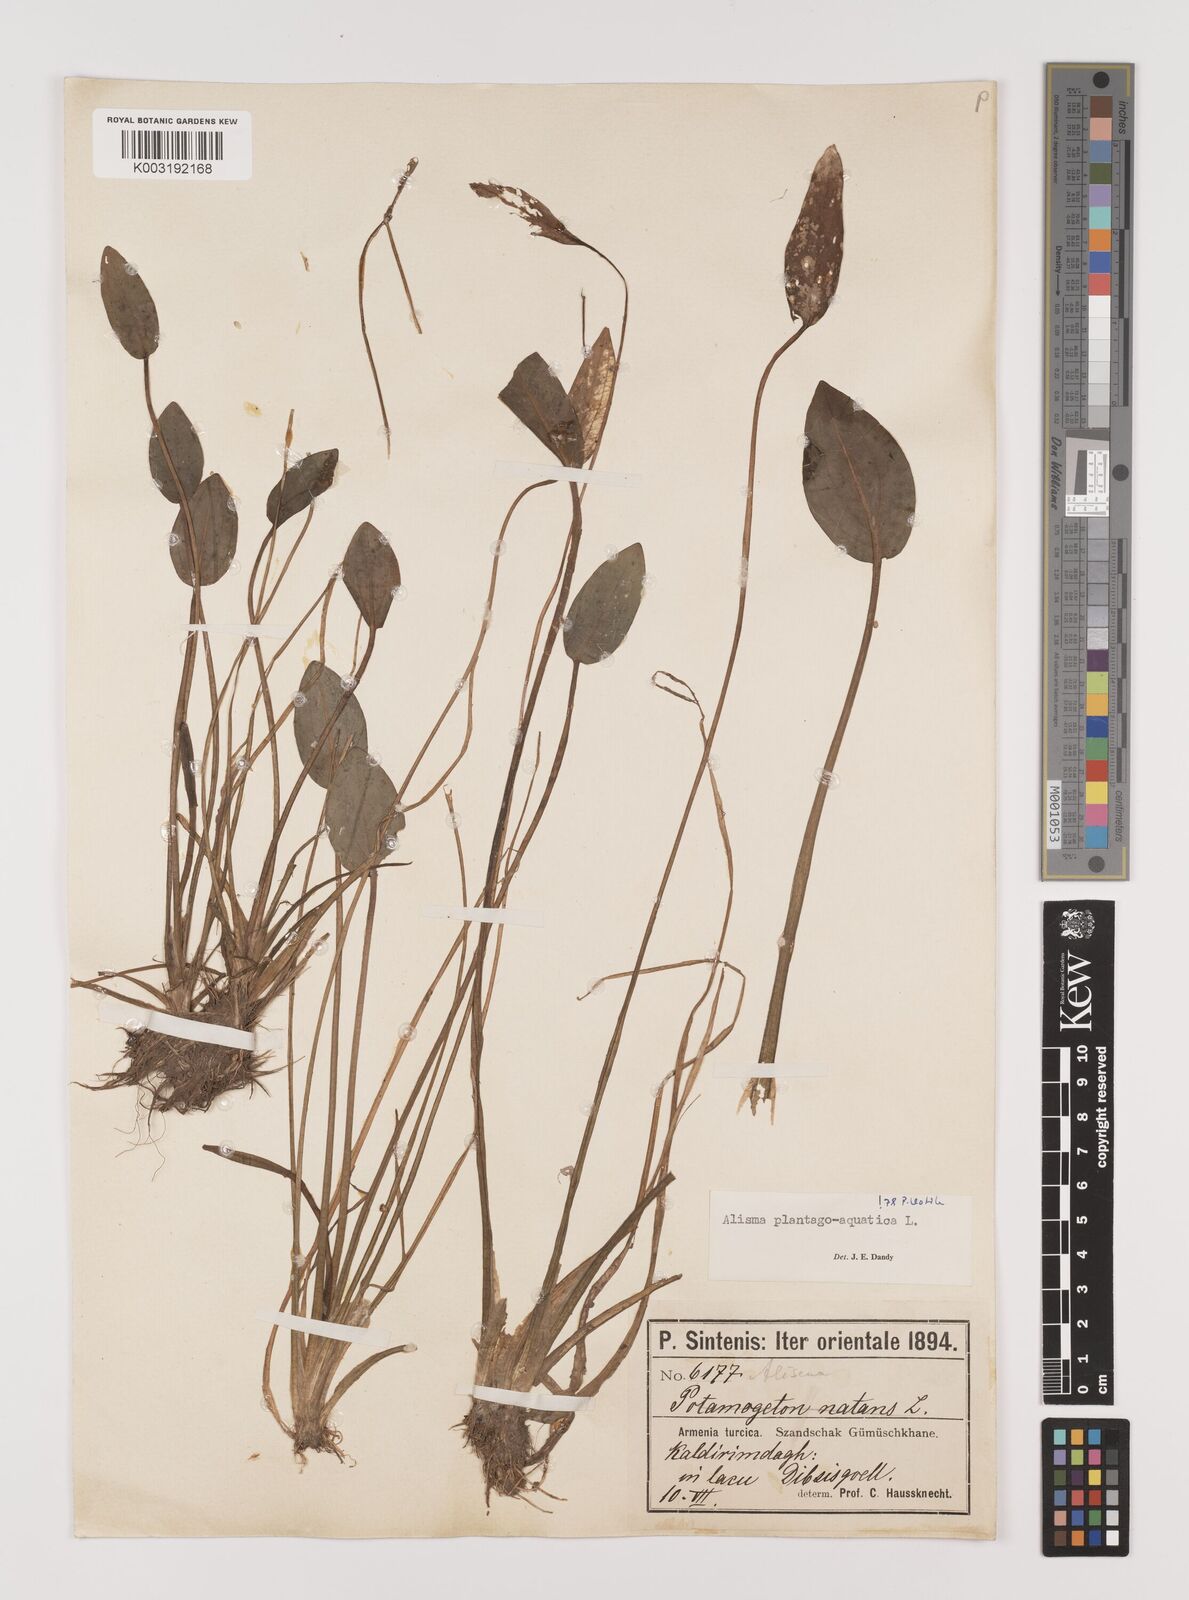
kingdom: Plantae
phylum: Tracheophyta
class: Liliopsida
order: Alismatales
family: Alismataceae
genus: Alisma
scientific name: Alisma plantago-aquatica
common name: Water-plantain
